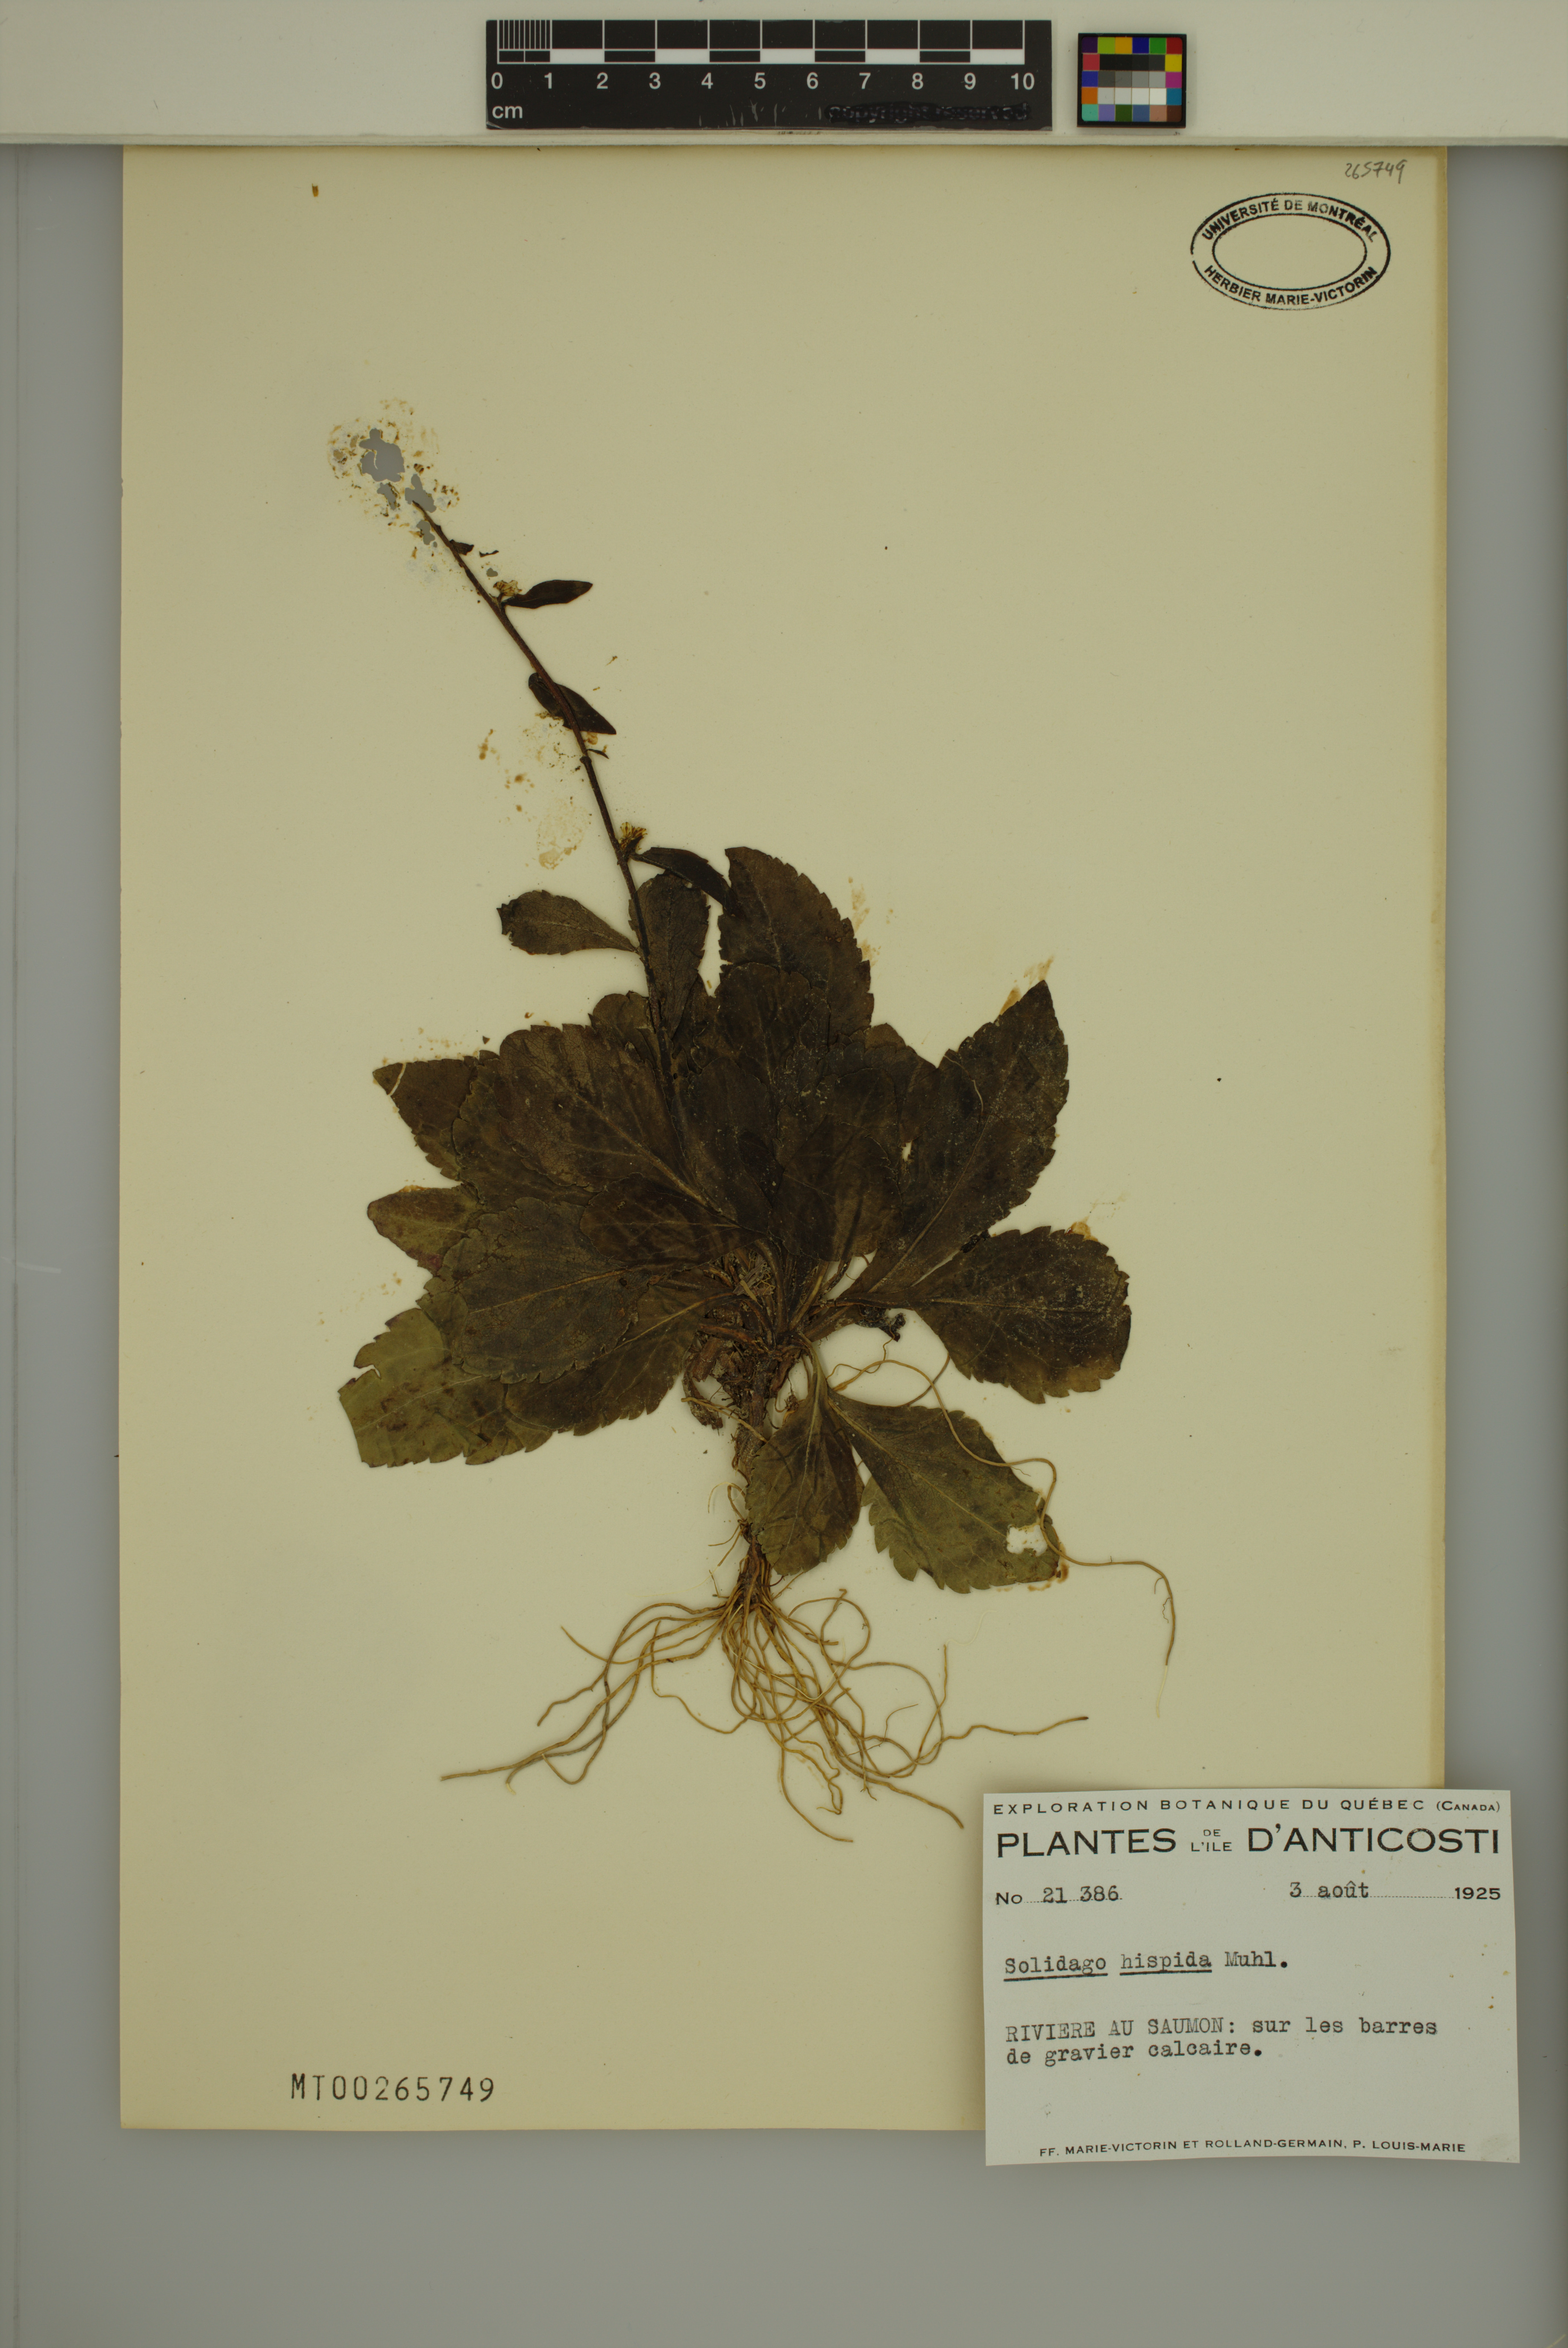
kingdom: Plantae
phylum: Tracheophyta
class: Magnoliopsida
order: Asterales
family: Asteraceae
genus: Solidago
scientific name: Solidago hispida
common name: Hairy goldenrod
